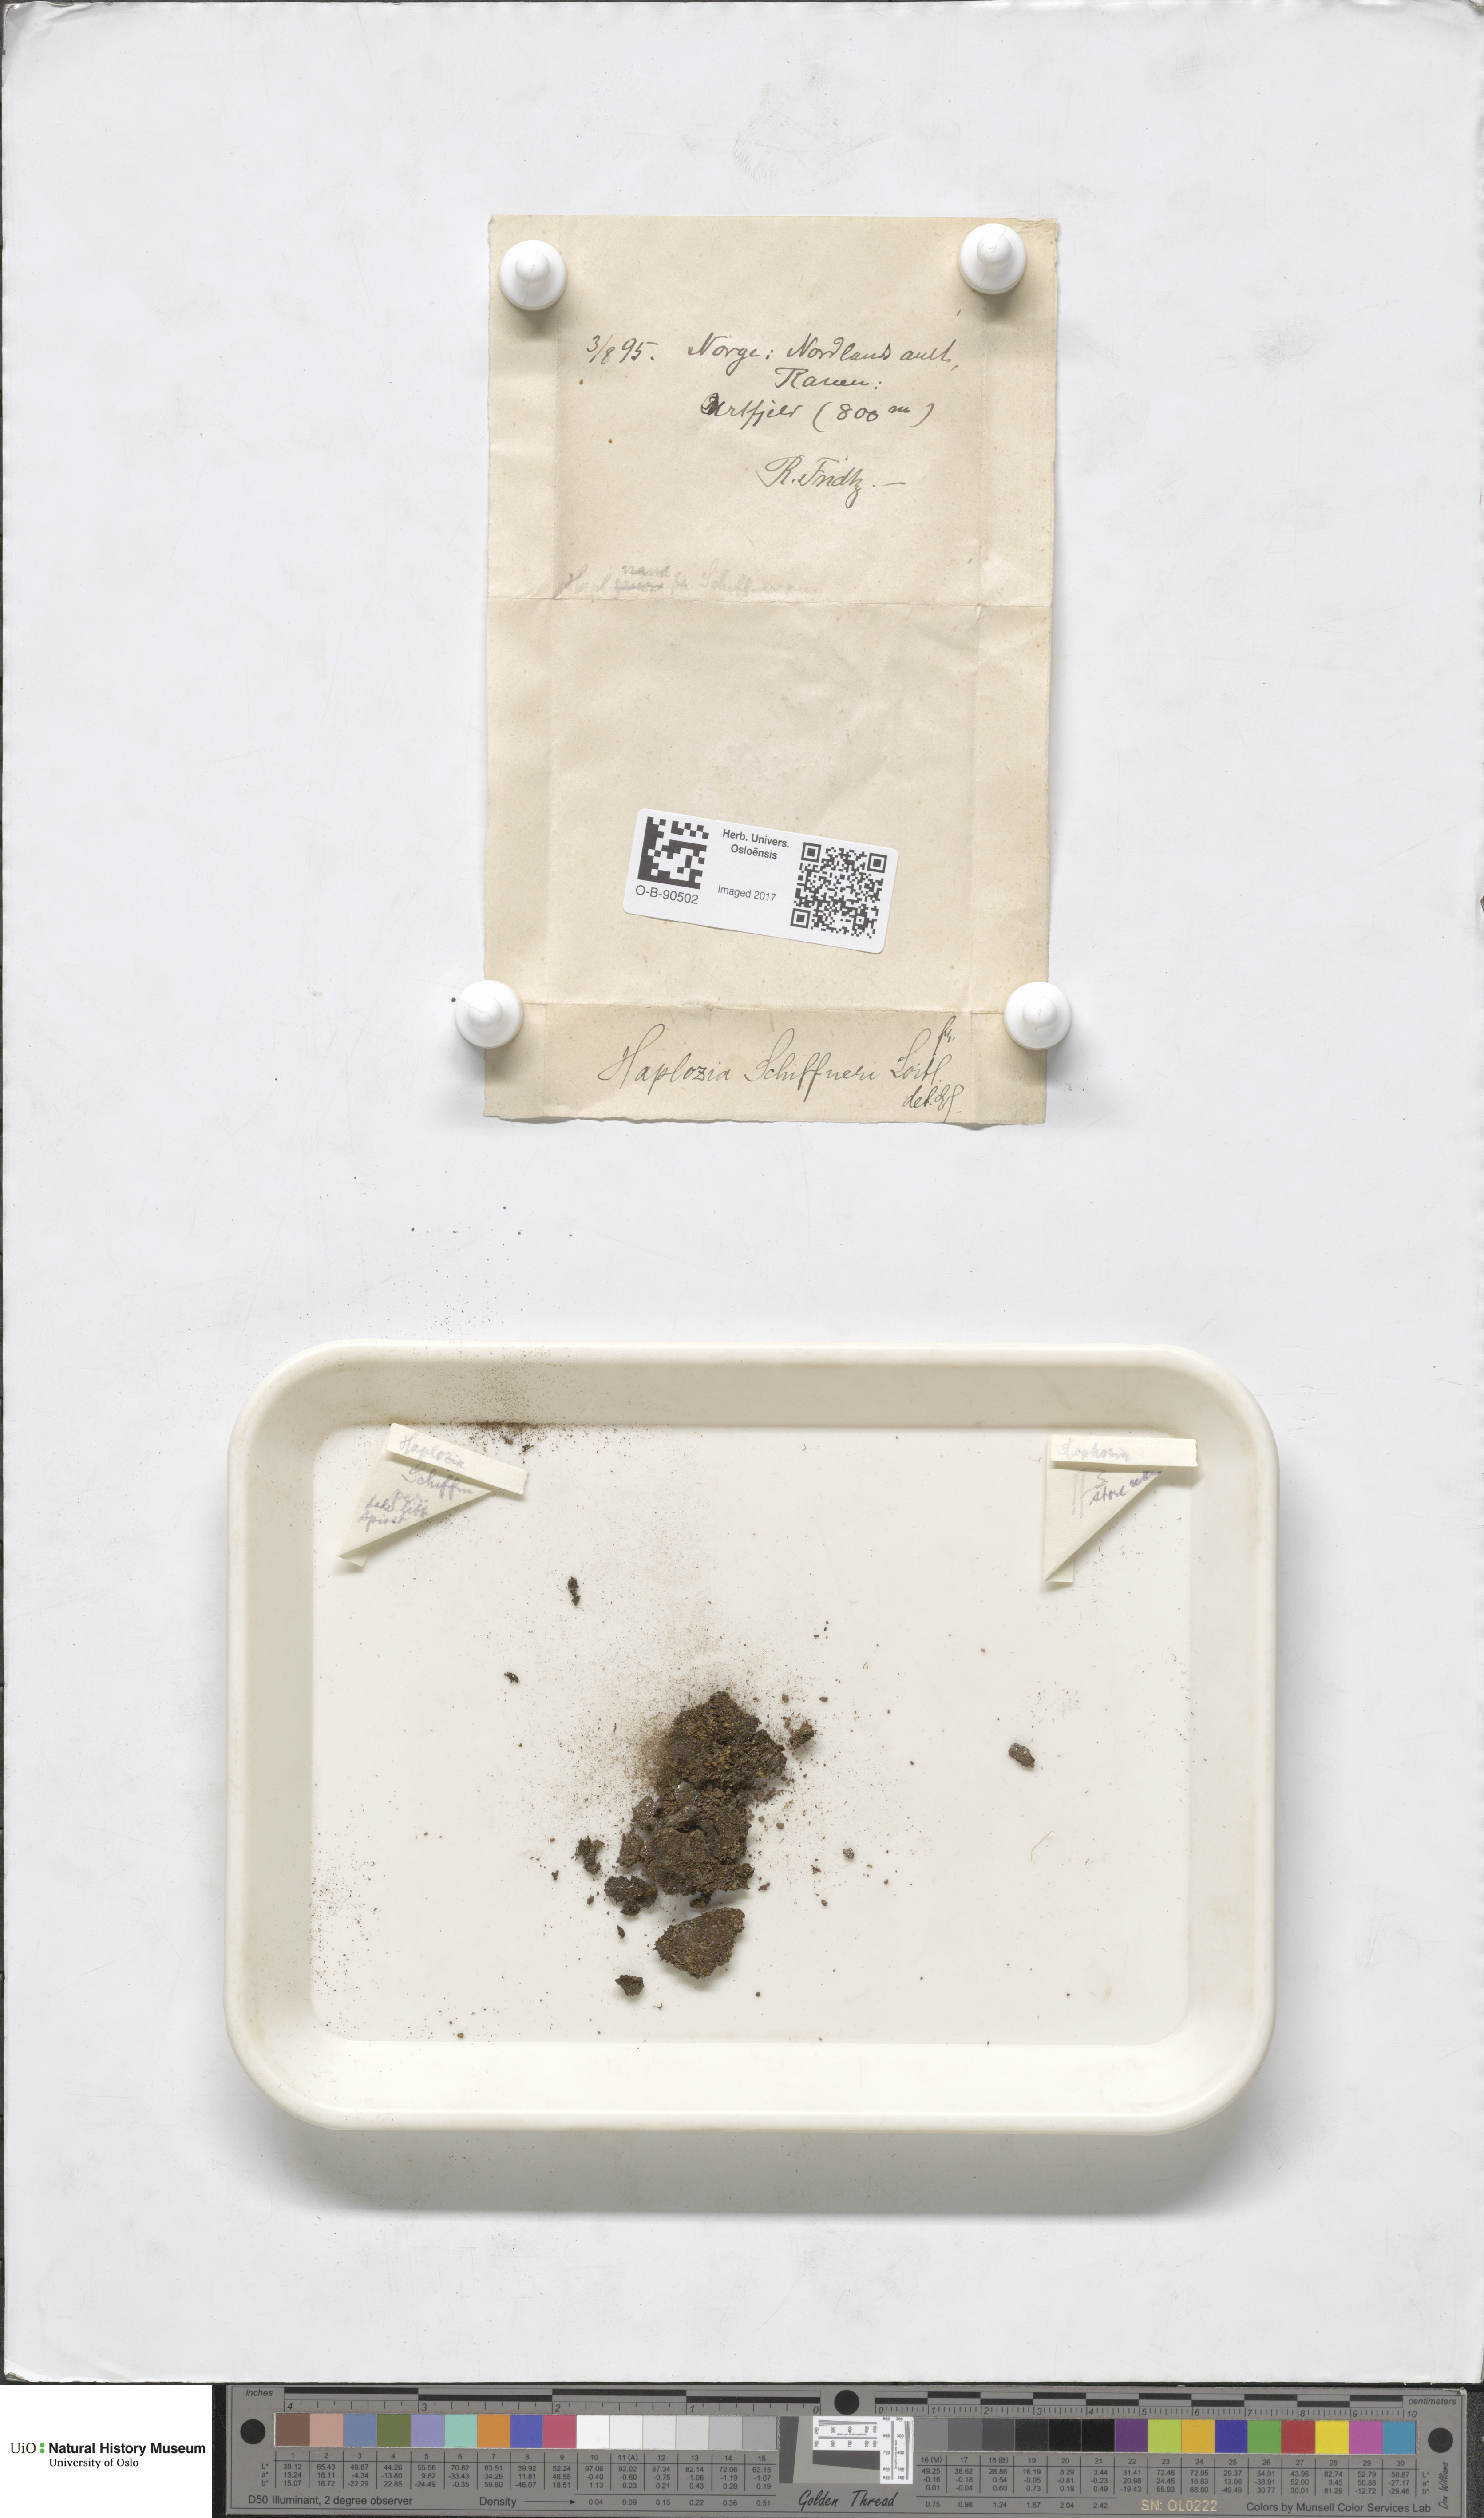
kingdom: Plantae
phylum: Marchantiophyta
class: Jungermanniopsida
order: Jungermanniales
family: Jungermanniaceae
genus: Jungermannia
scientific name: Jungermannia polaris
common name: Arctic flapwort
